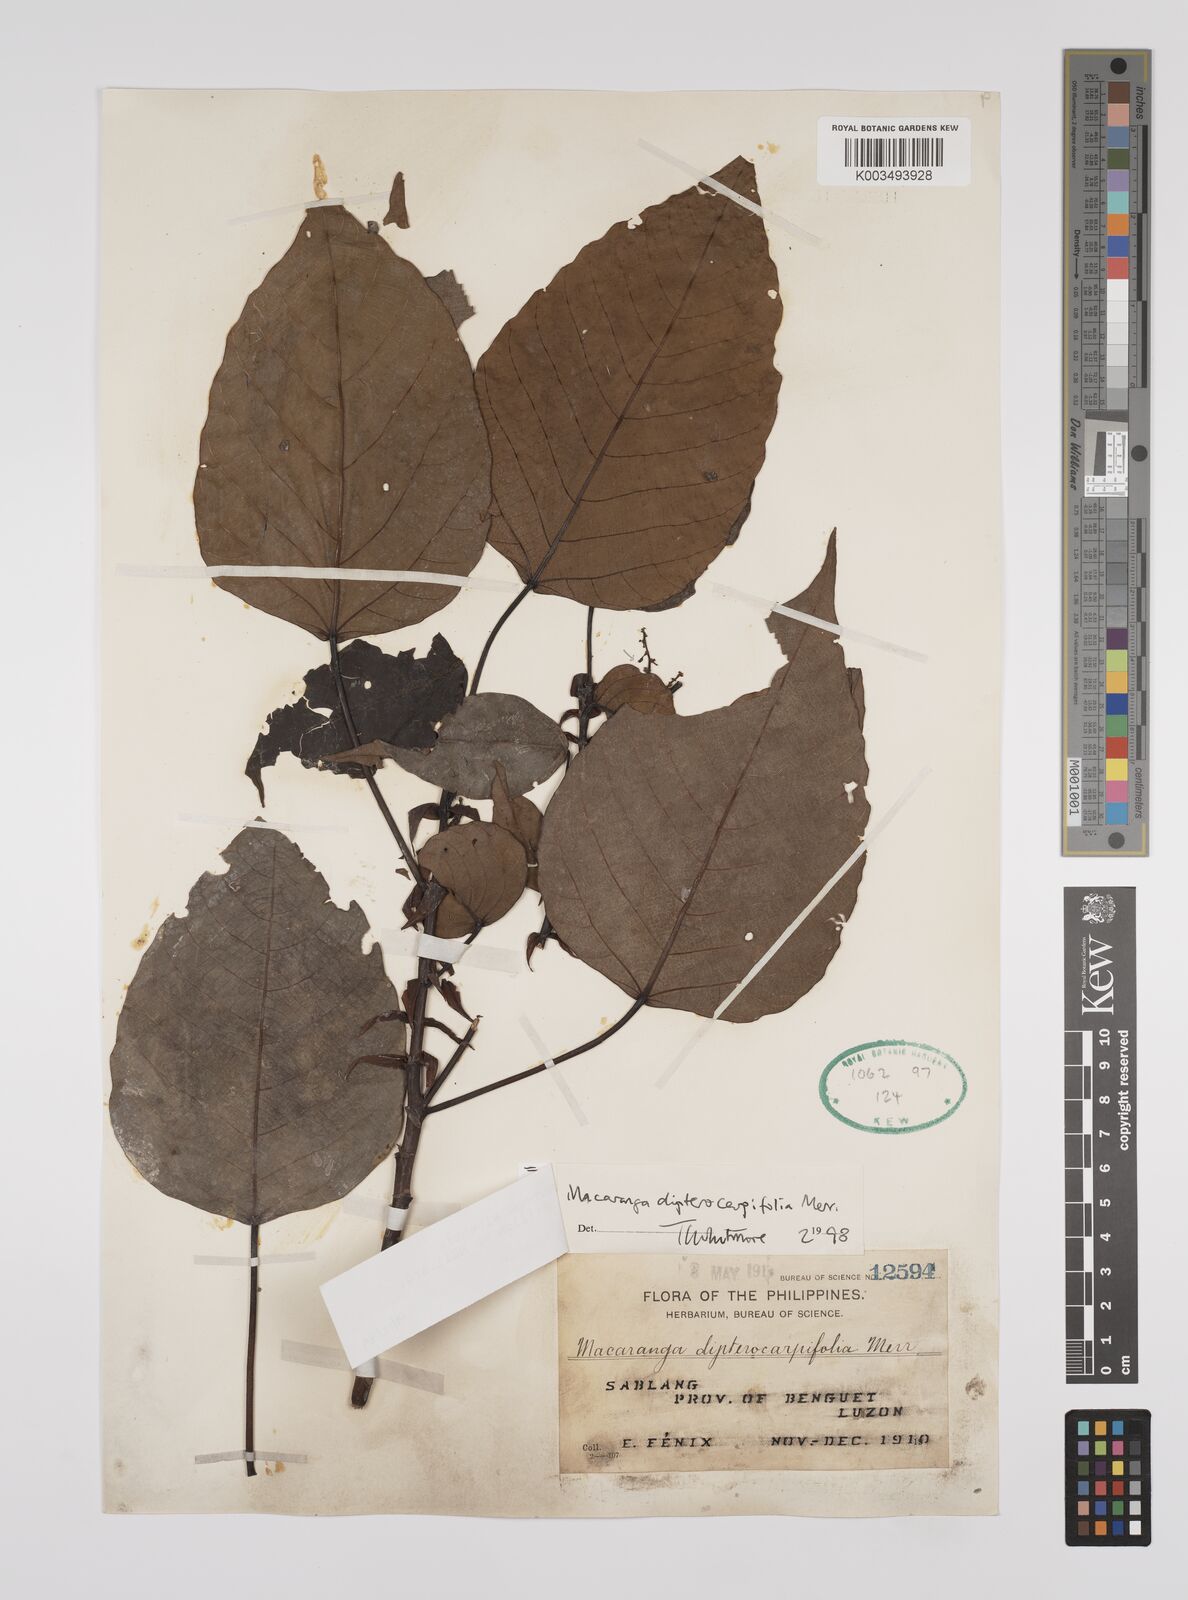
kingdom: Plantae
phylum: Tracheophyta
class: Magnoliopsida
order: Malpighiales
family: Euphorbiaceae
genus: Macaranga
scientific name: Macaranga sinensis
